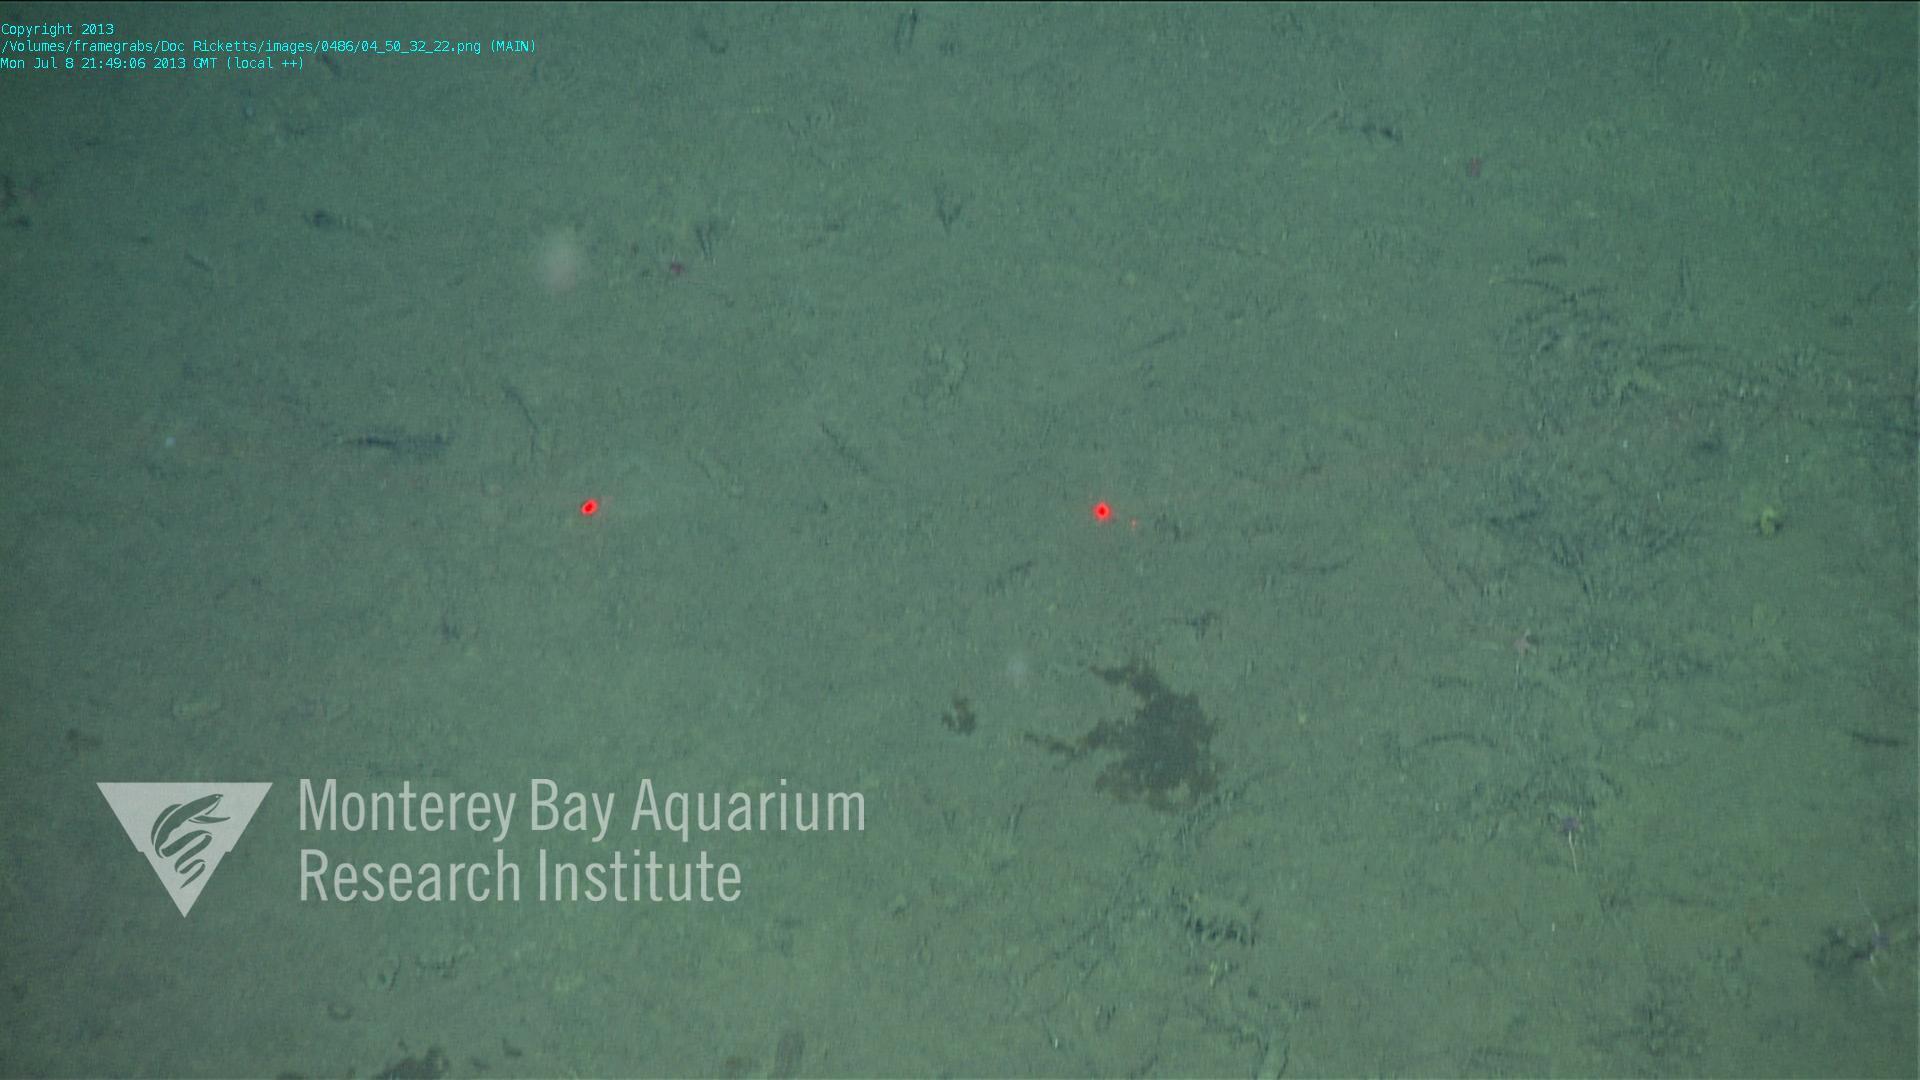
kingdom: Animalia
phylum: Porifera
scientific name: Porifera
